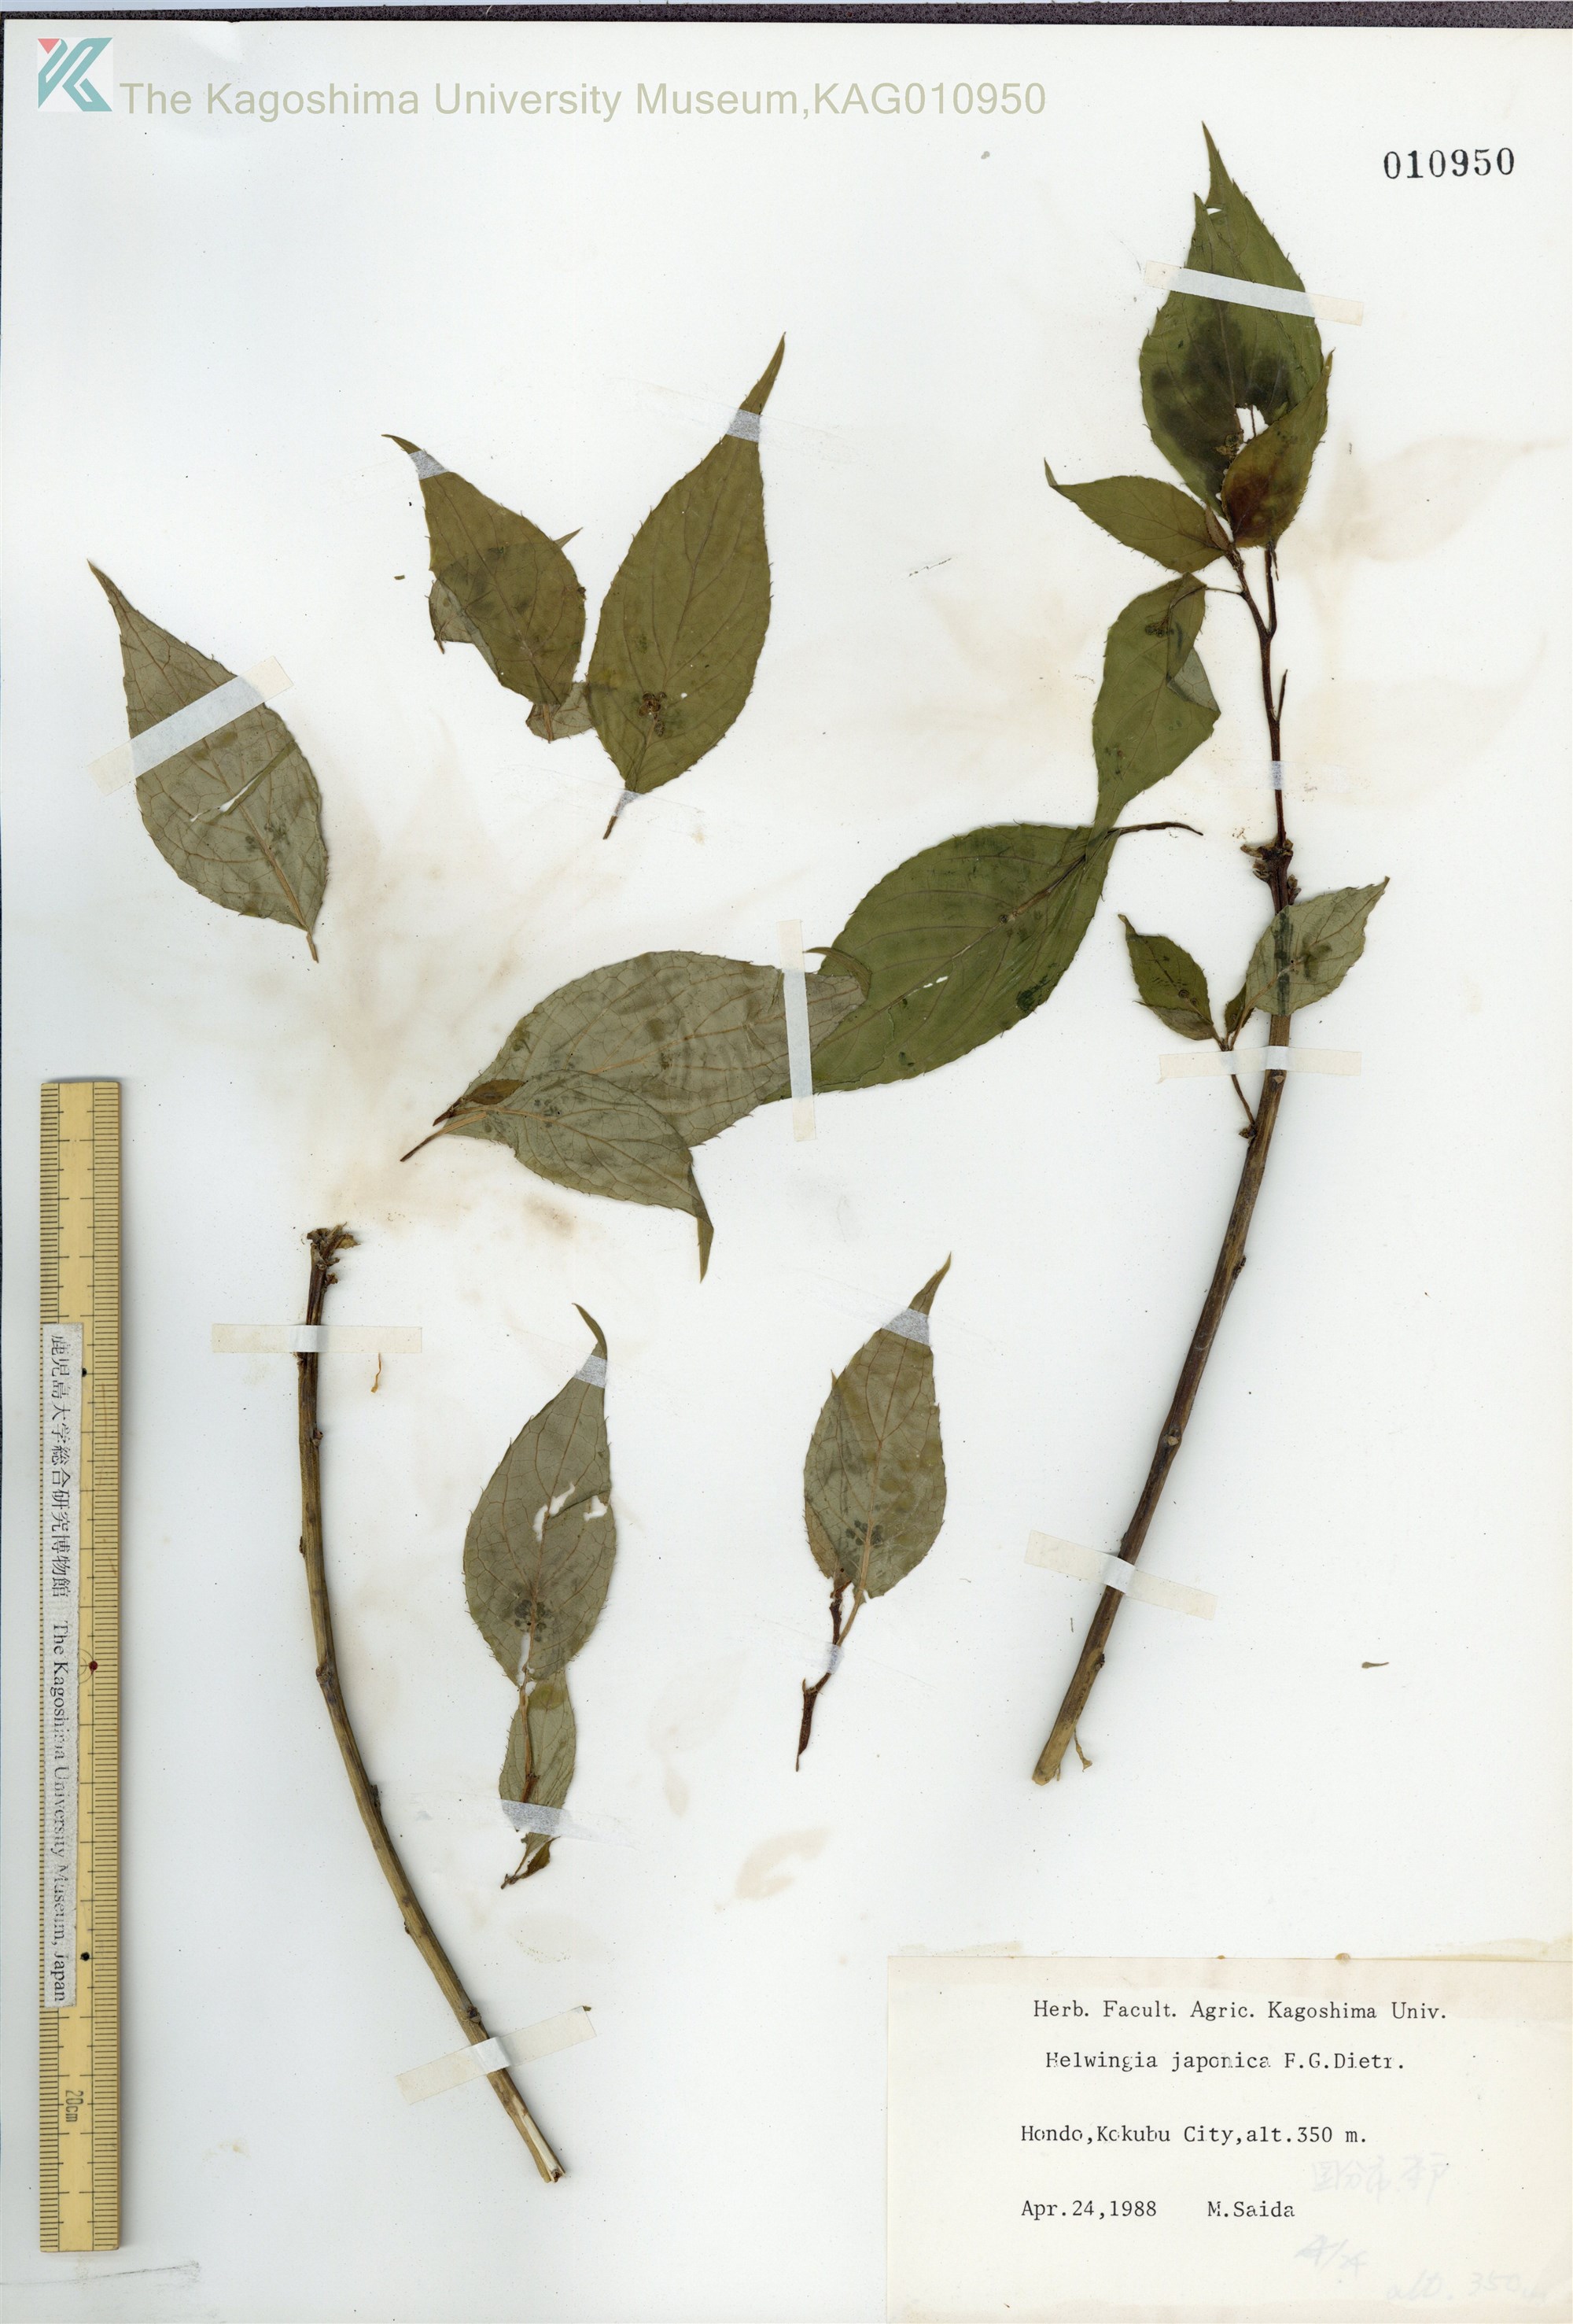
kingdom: Plantae
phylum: Tracheophyta
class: Magnoliopsida
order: Aquifoliales
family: Helwingiaceae
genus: Helwingia
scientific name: Helwingia japonica
